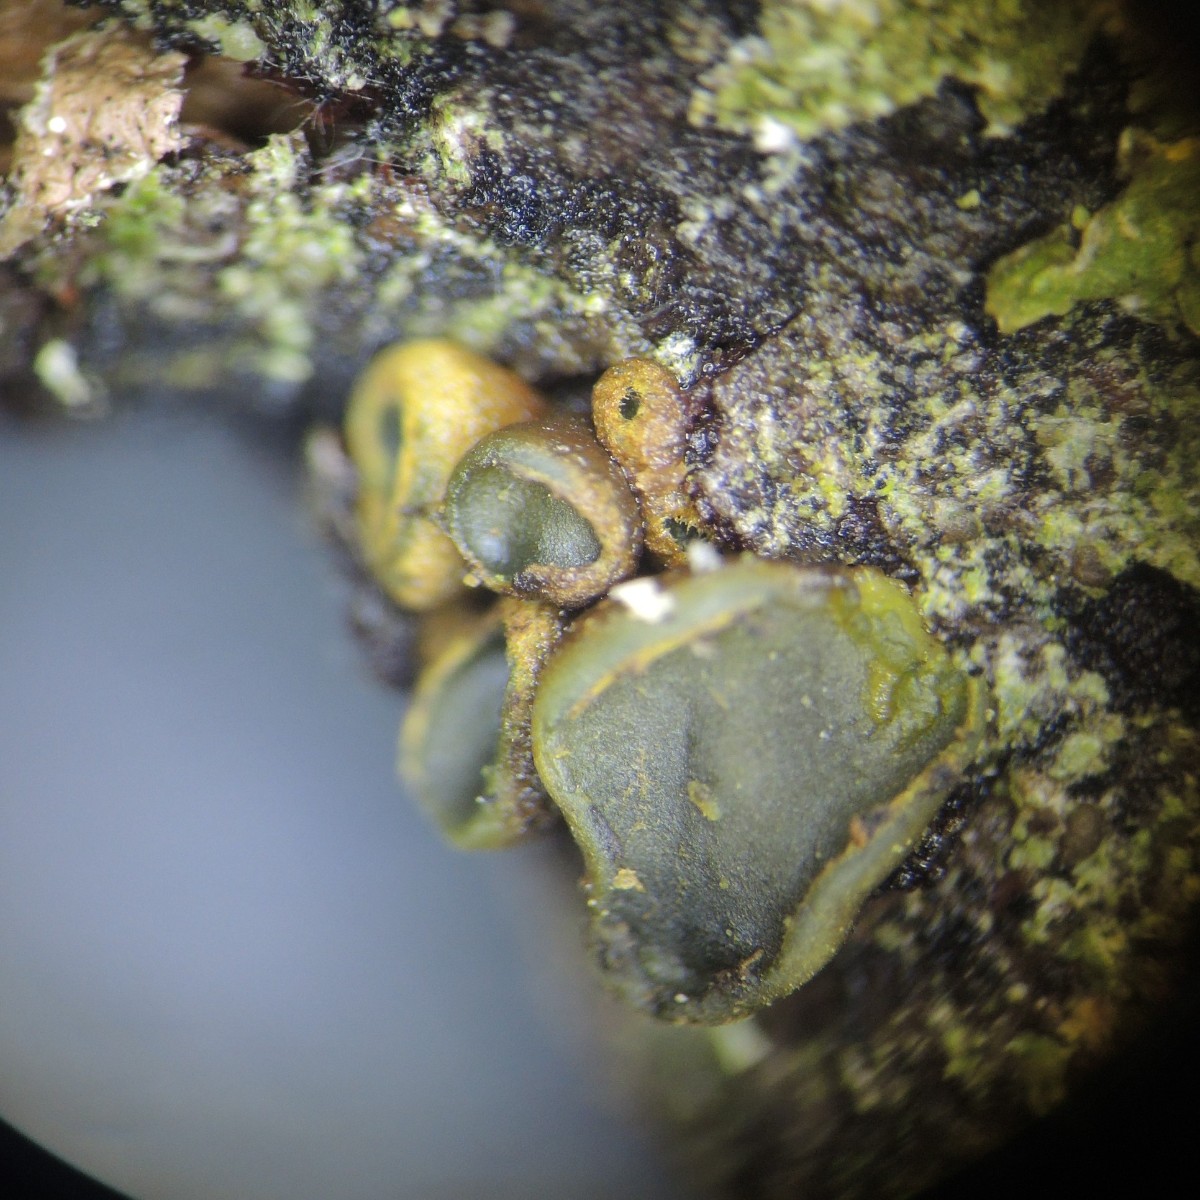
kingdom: Fungi
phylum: Ascomycota
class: Leotiomycetes
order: Helotiales
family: Cordieritidaceae
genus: Ionomidotis
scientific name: Ionomidotis fulvotingens
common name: rødmende tjæreskive
